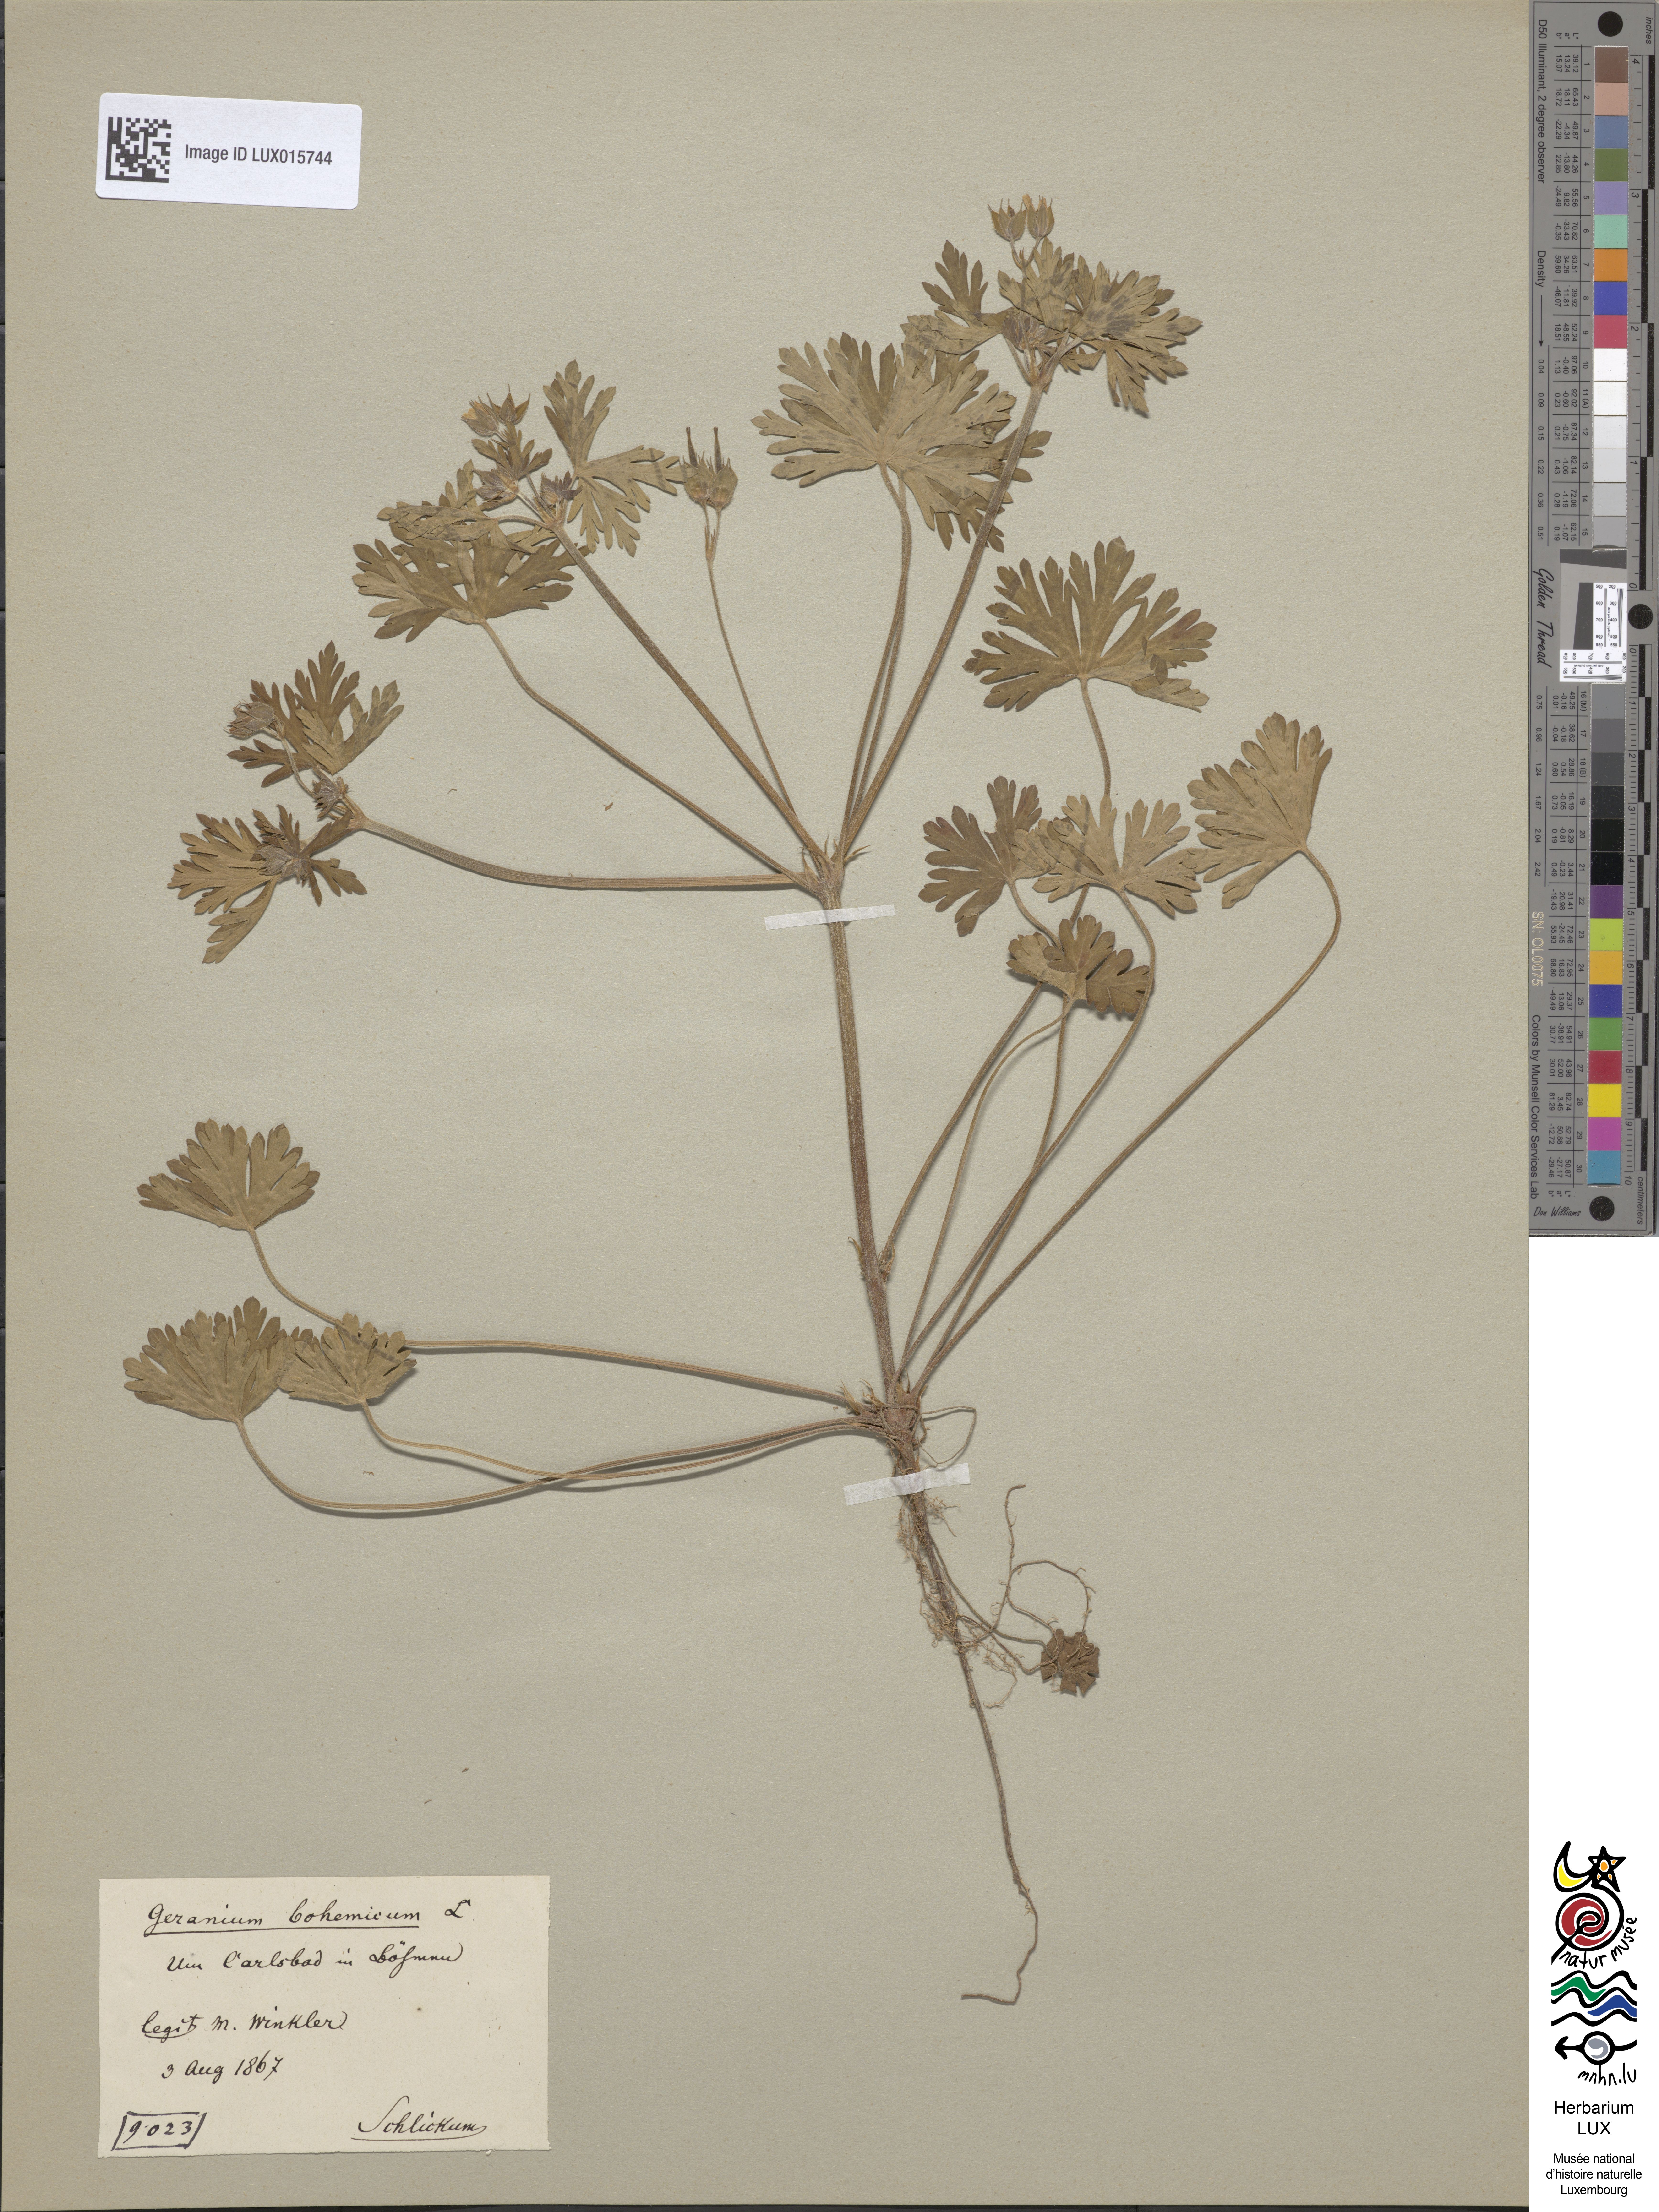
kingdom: Plantae
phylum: Tracheophyta
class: Magnoliopsida
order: Geraniales
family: Geraniaceae
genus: Geranium
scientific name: Geranium bohemicum
